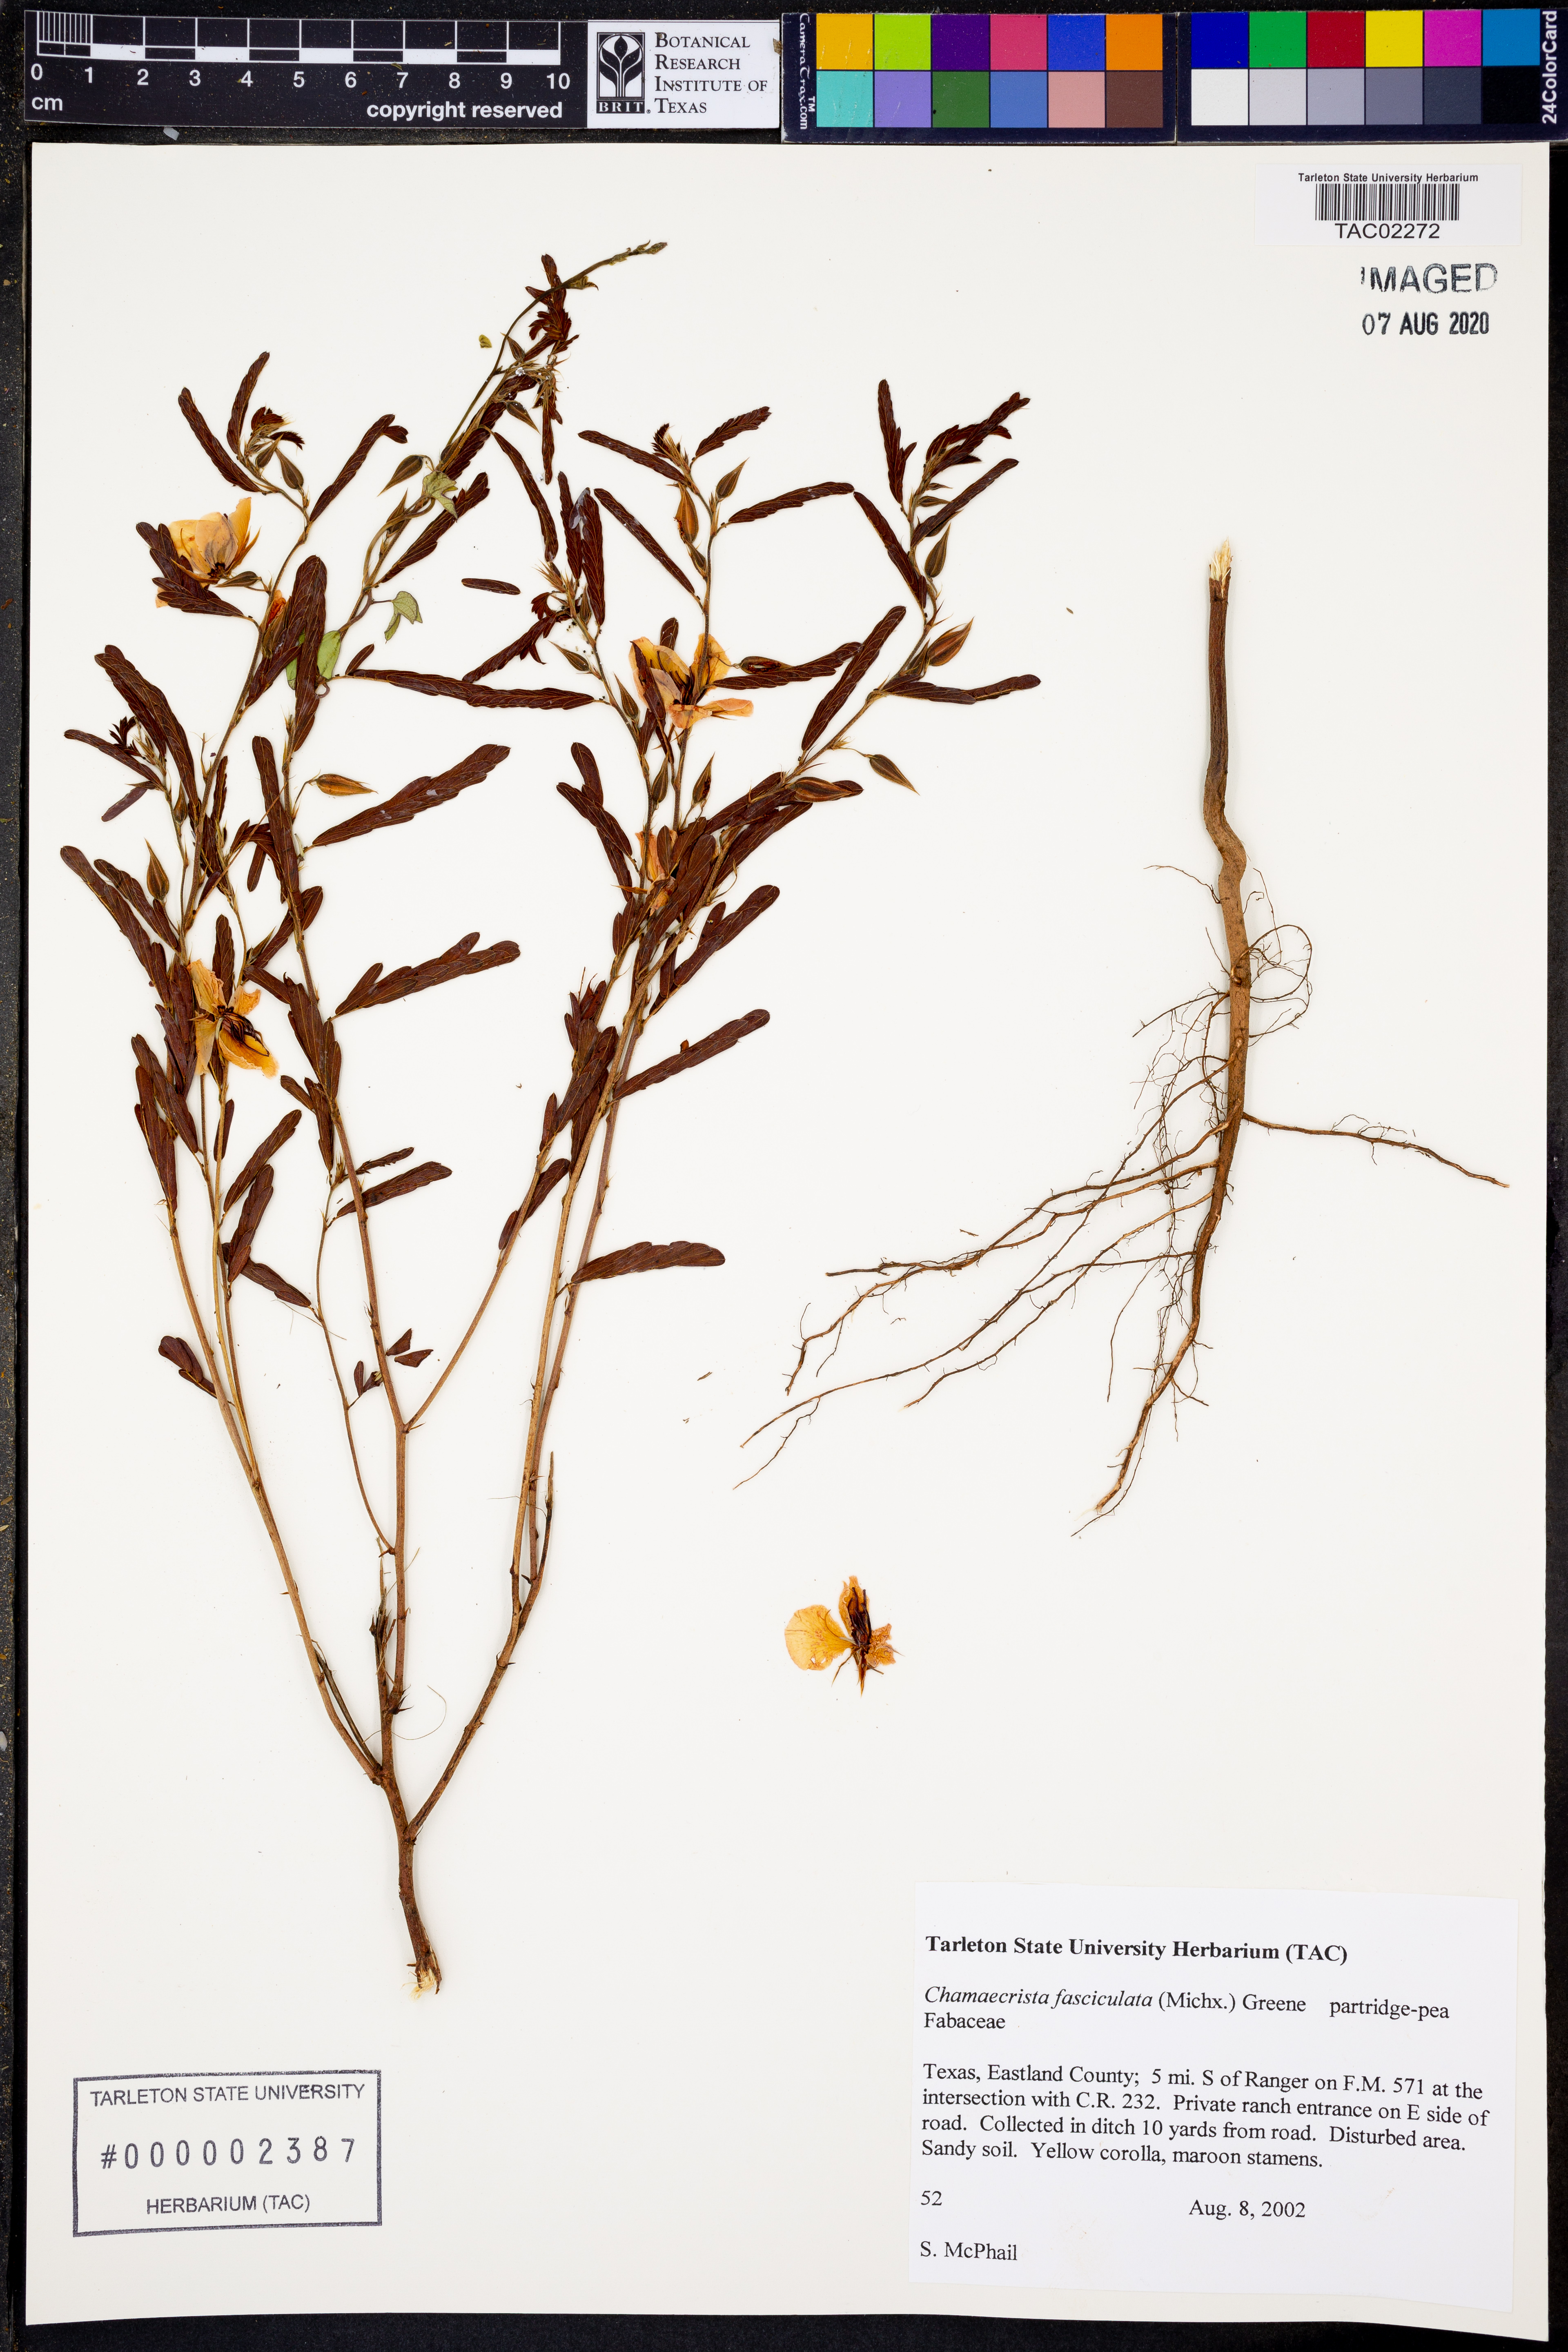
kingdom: Plantae
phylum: Tracheophyta
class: Magnoliopsida
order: Fabales
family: Fabaceae
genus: Chamaecrista
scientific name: Chamaecrista fasciculata
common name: Golden cassia
